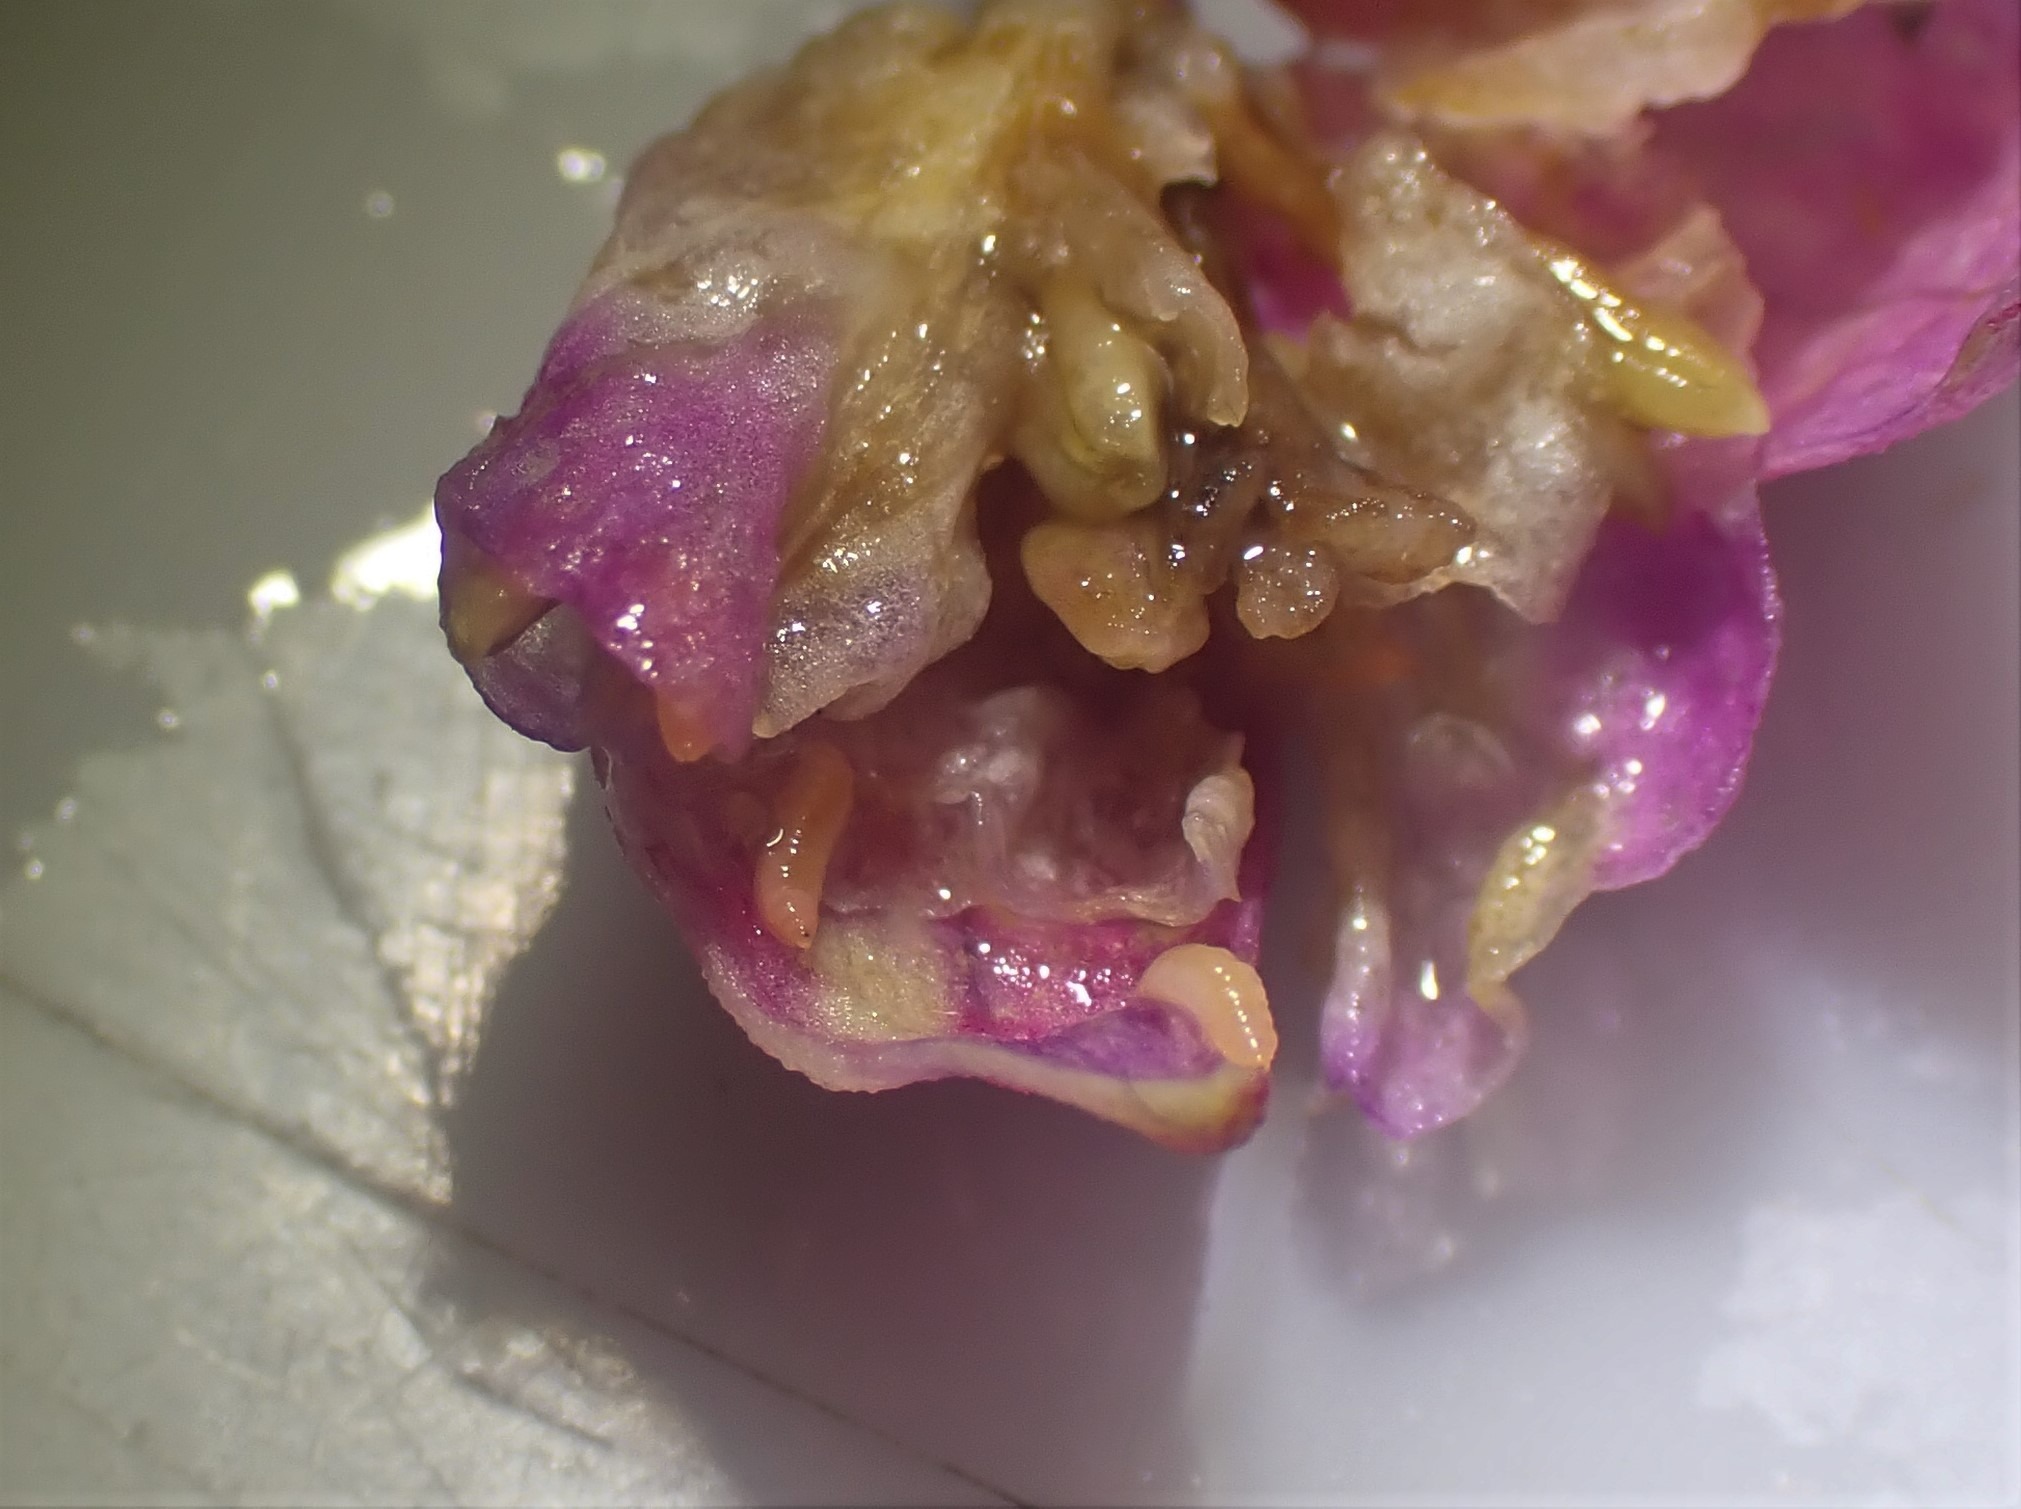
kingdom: Animalia
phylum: Arthropoda
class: Insecta
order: Diptera
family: Cecidomyiidae
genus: Dasineura
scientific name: Dasineura epilobii
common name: Gederamsblomstgalmyg
